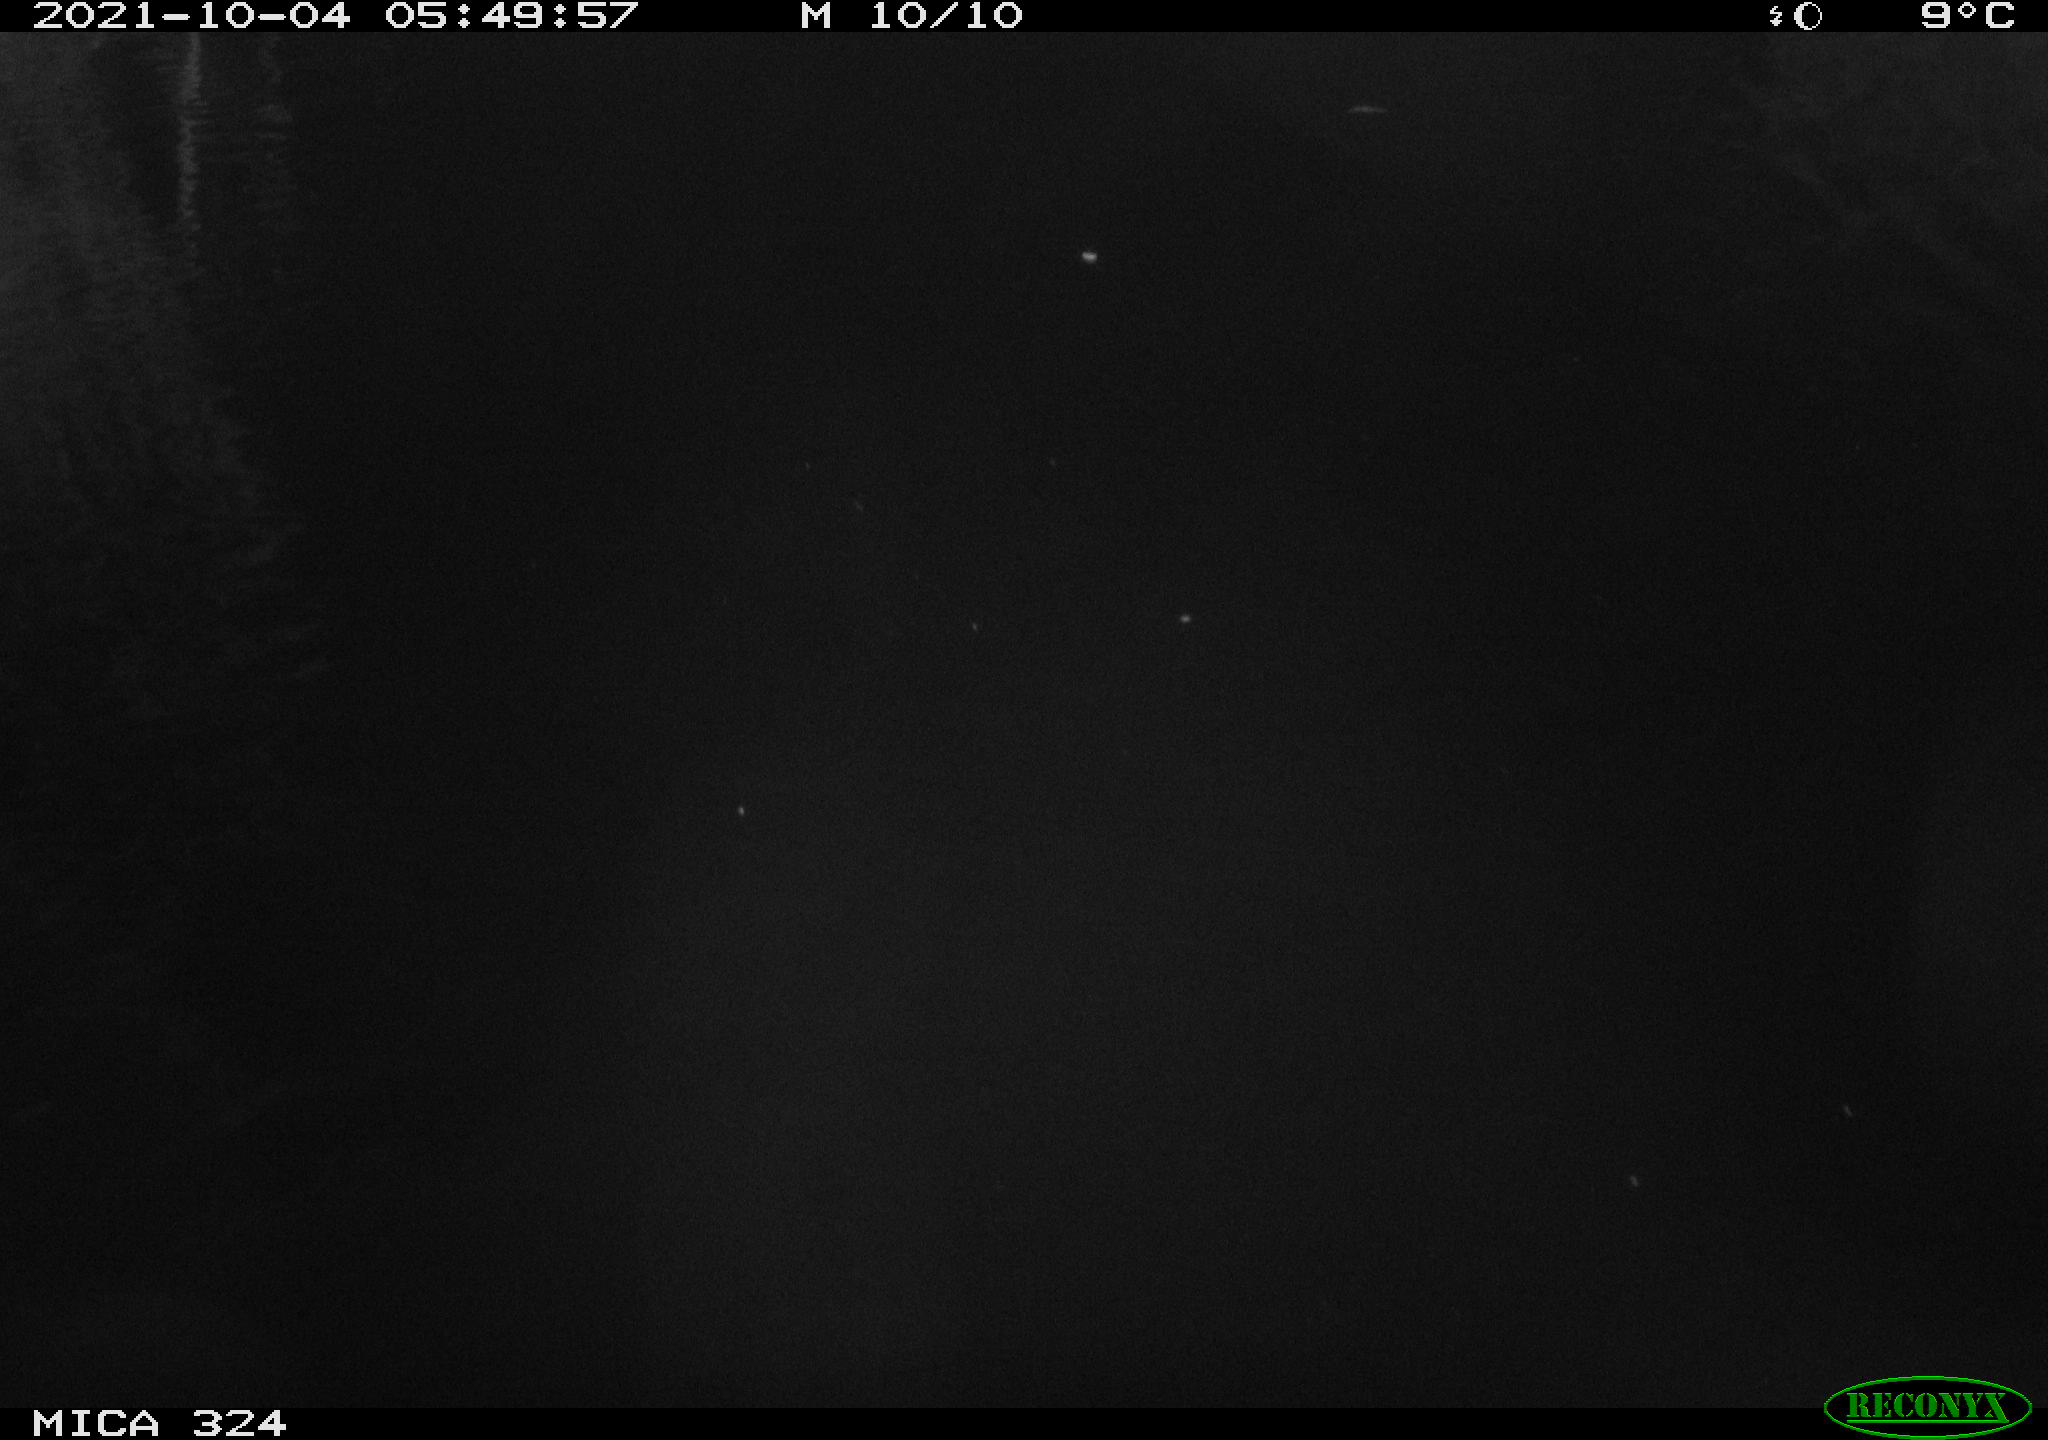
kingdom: Animalia
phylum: Chordata
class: Mammalia
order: Rodentia
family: Cricetidae
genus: Ondatra
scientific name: Ondatra zibethicus
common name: Muskrat
